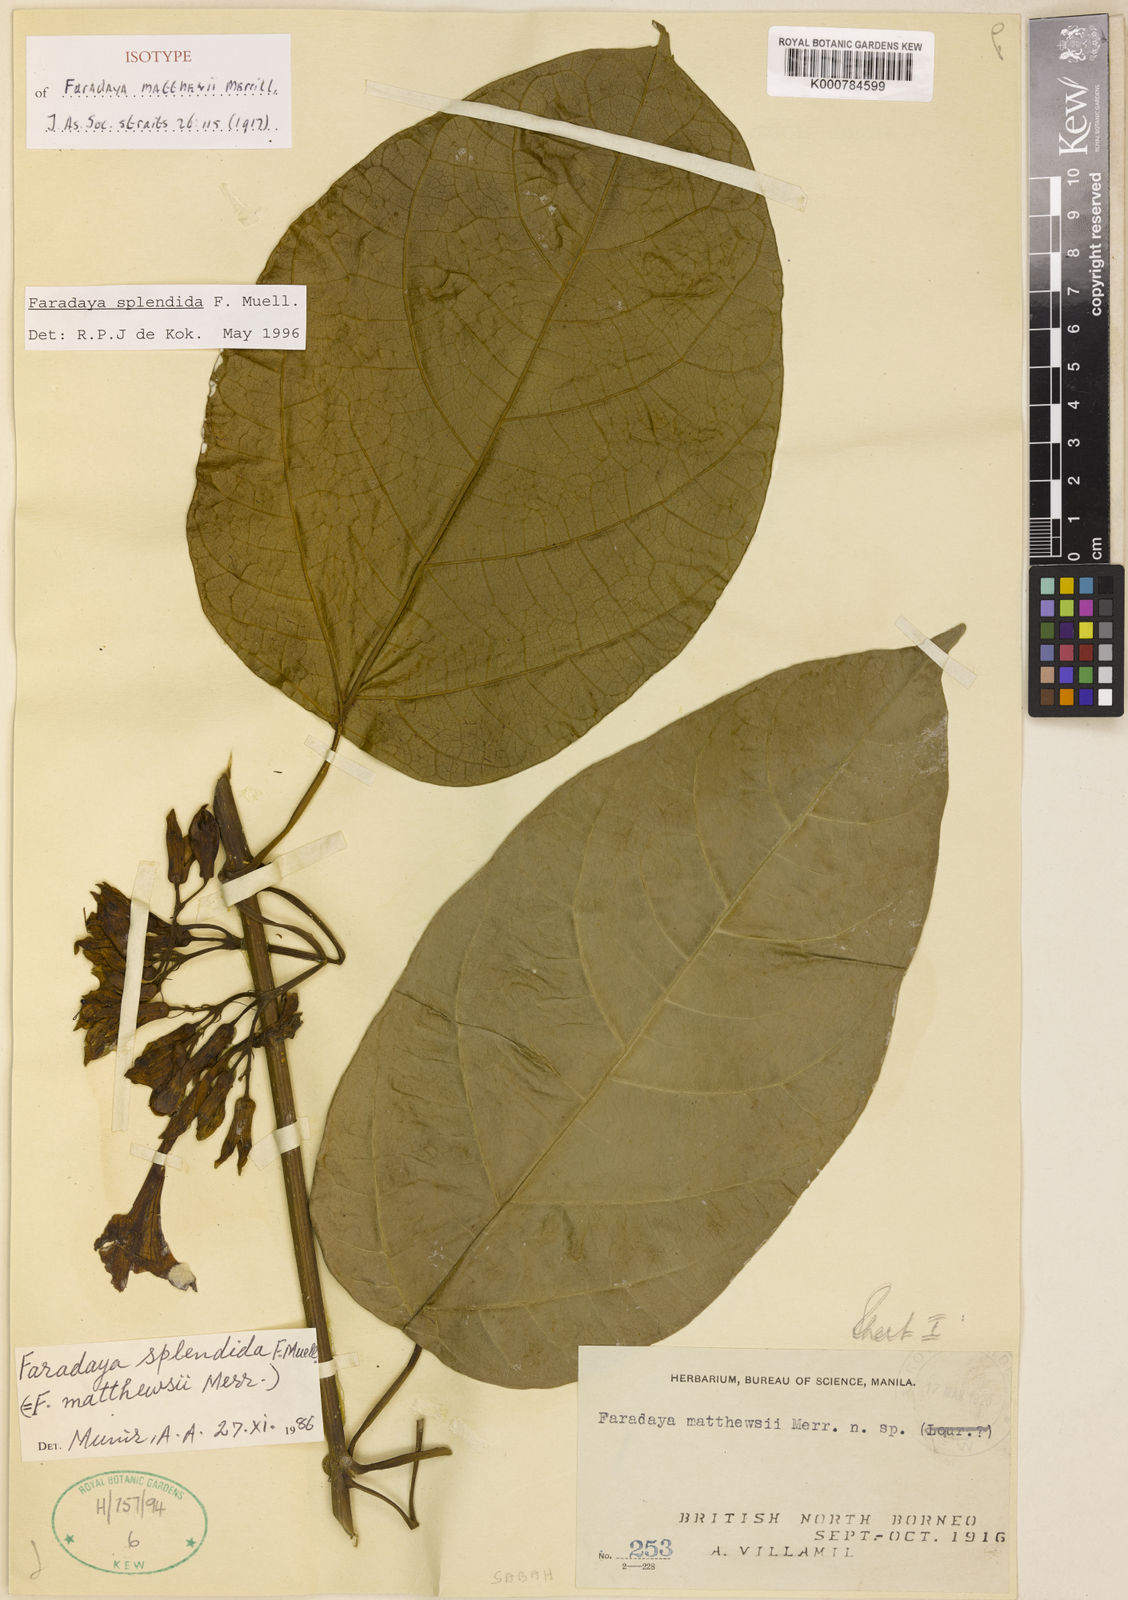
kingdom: Plantae
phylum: Tracheophyta
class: Magnoliopsida
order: Lamiales
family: Lamiaceae
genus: Oxera
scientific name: Oxera splendida
